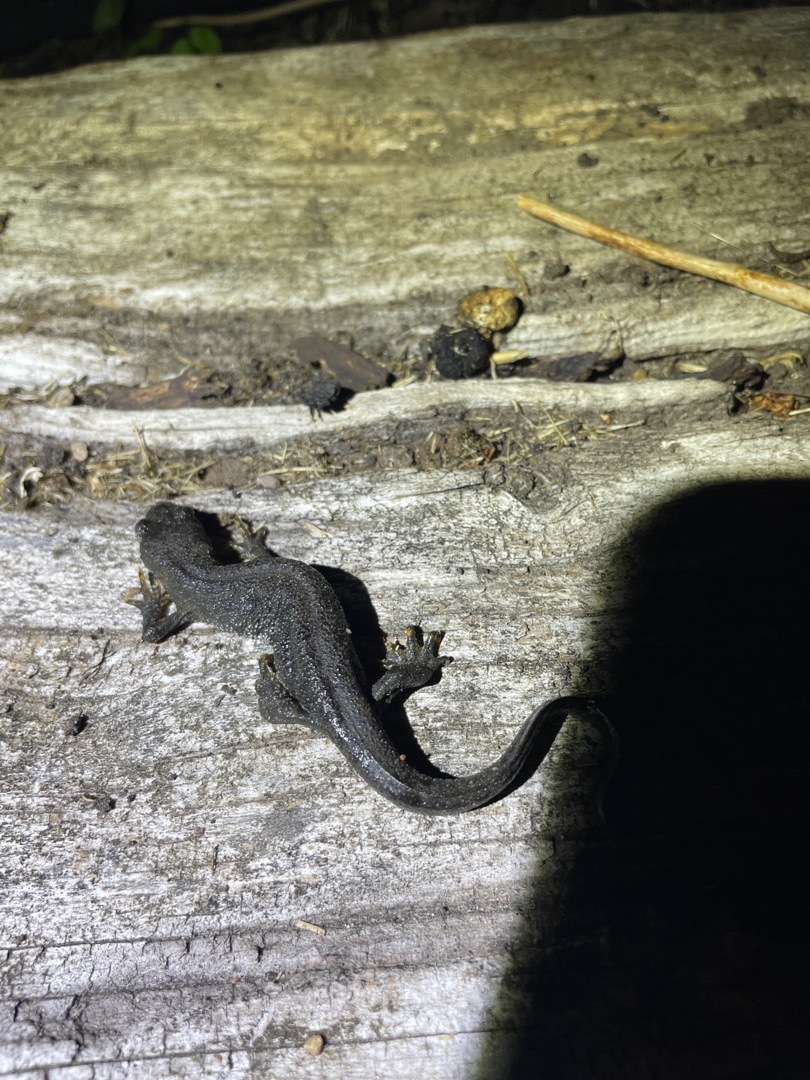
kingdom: Animalia
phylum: Chordata
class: Amphibia
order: Caudata
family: Salamandridae
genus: Triturus
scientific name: Triturus cristatus
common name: Stor vandsalamander
